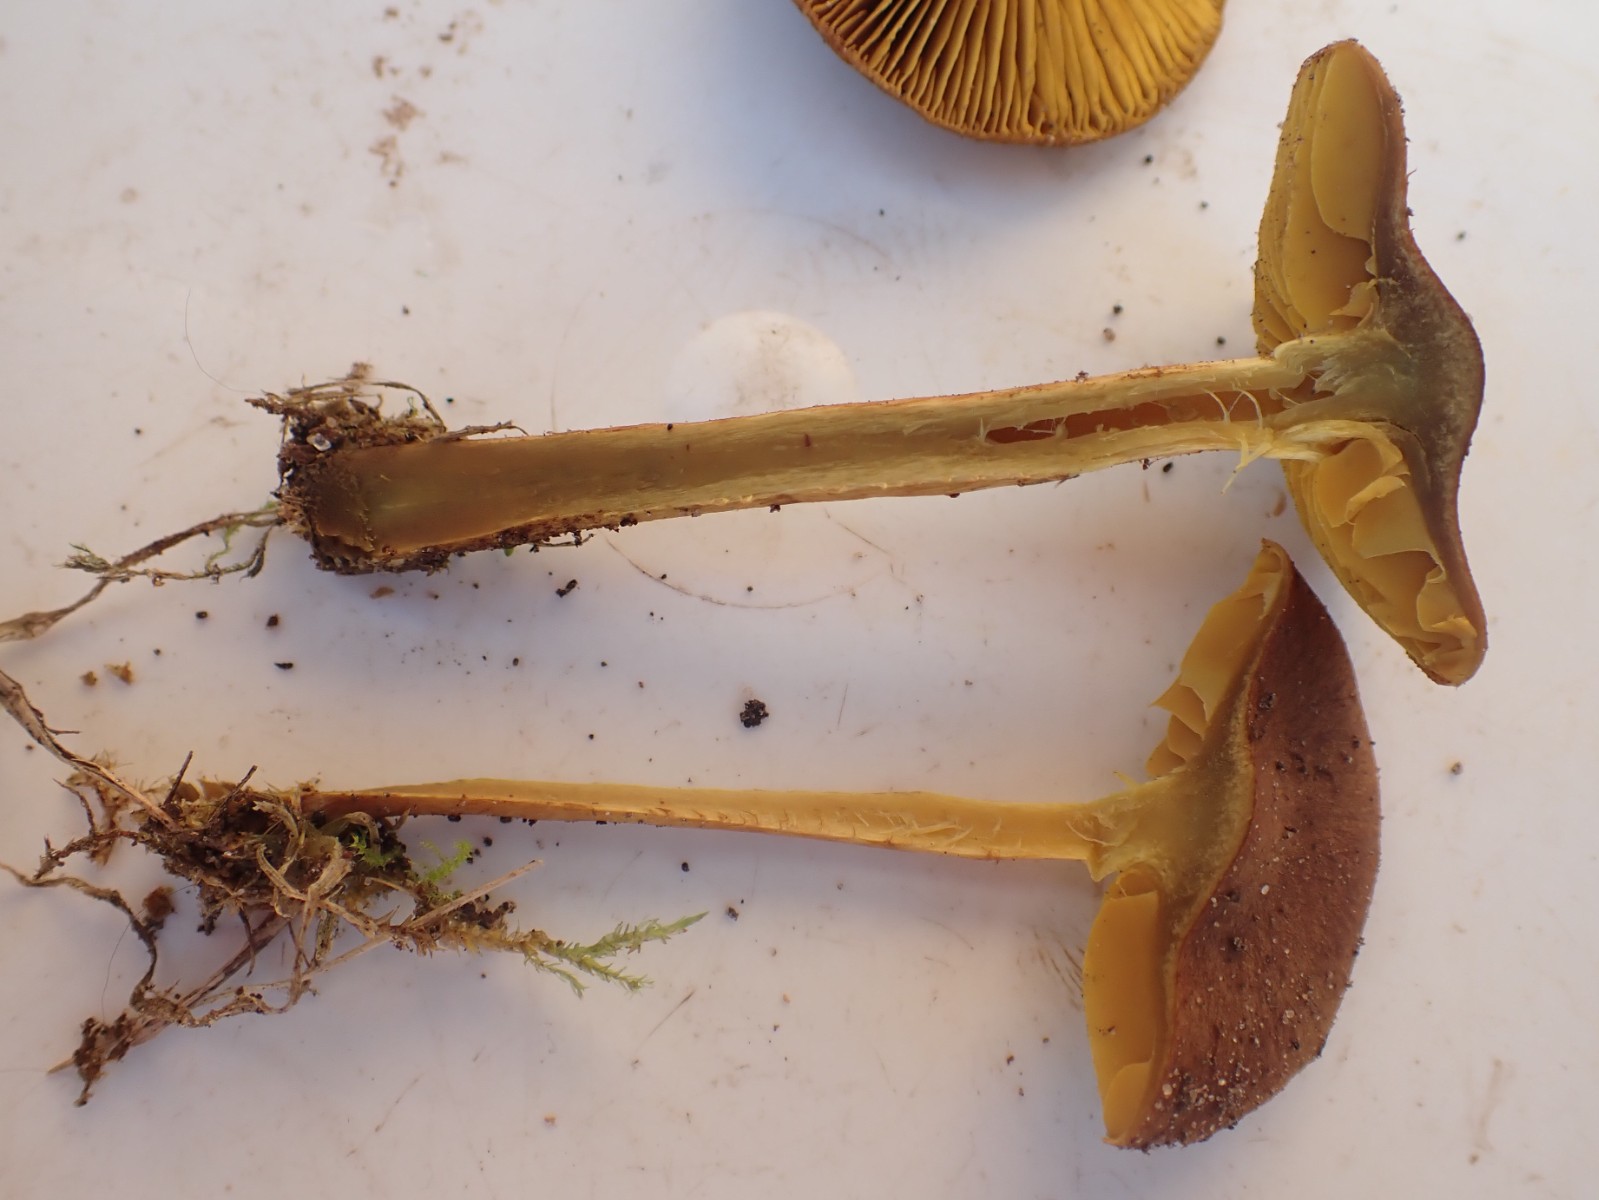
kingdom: Fungi
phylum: Basidiomycota
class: Agaricomycetes
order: Agaricales
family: Cortinariaceae
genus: Cortinarius
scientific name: Cortinarius
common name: gulbladet slørhat
